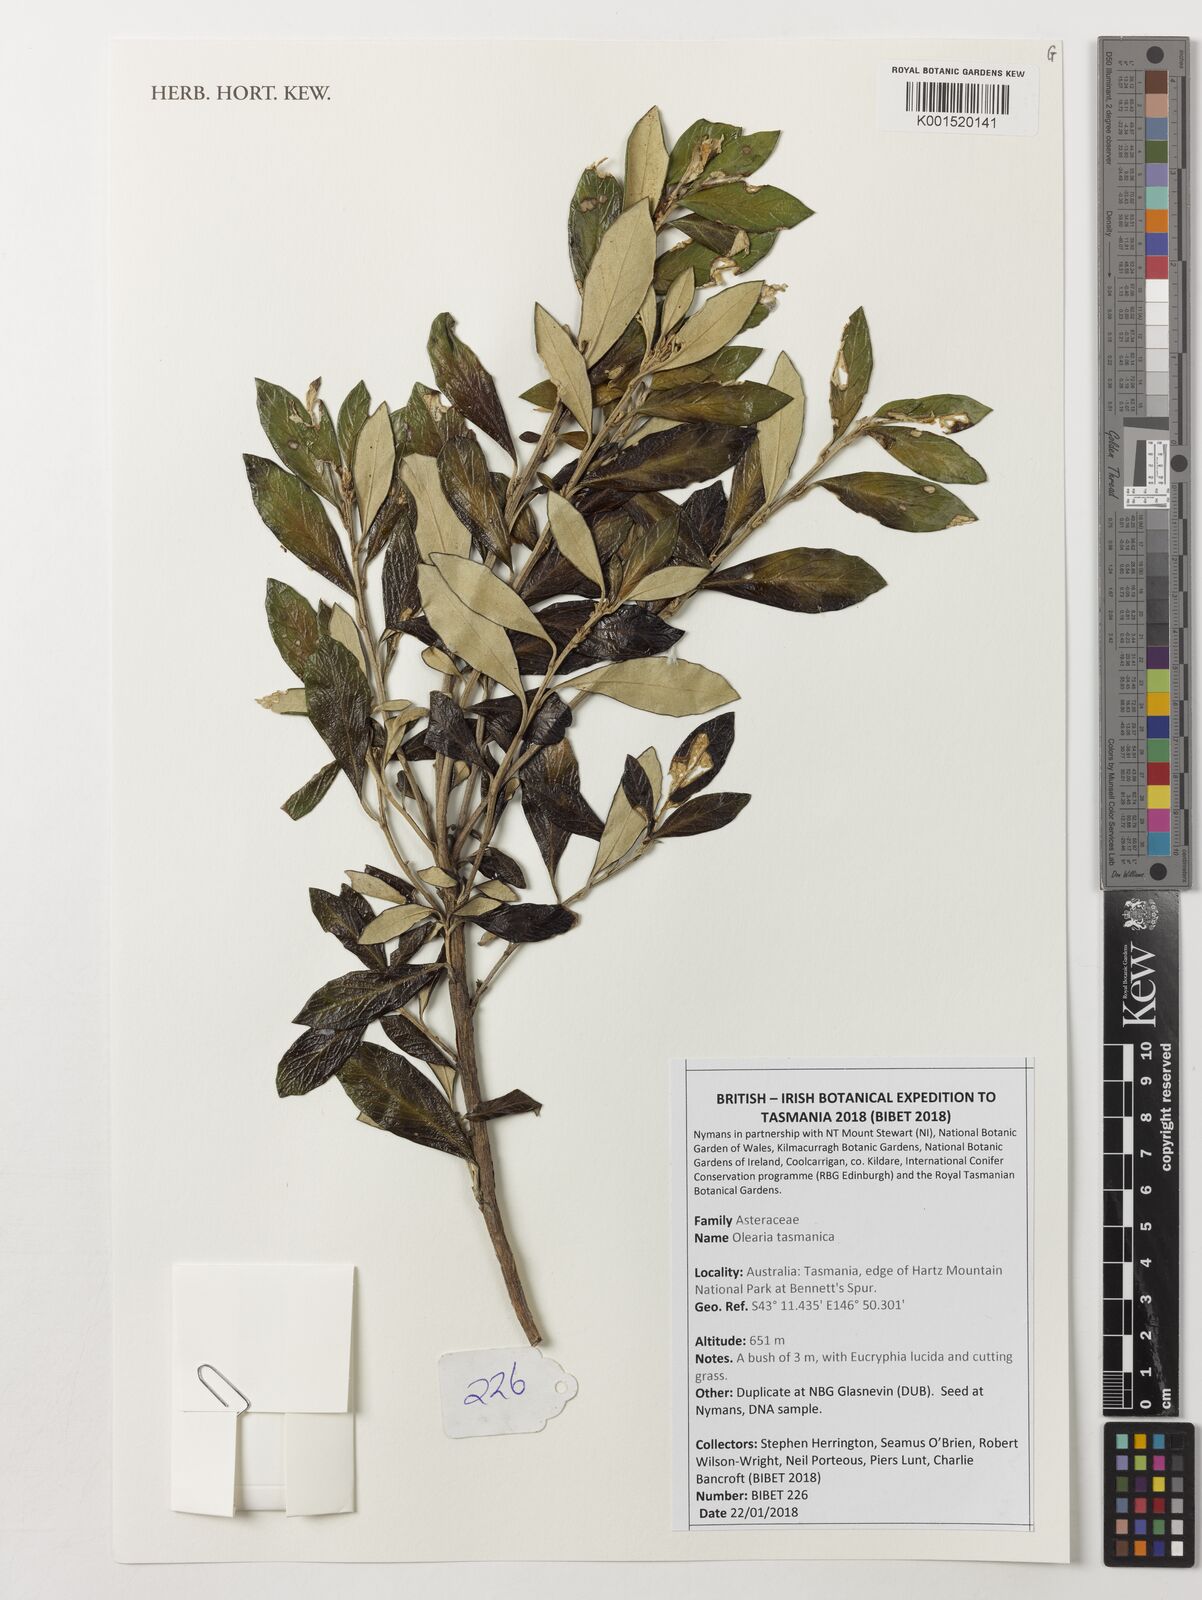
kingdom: Plantae
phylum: Tracheophyta
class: Magnoliopsida
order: Asterales
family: Asteraceae
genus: Olearia
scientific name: Olearia tasmanica
